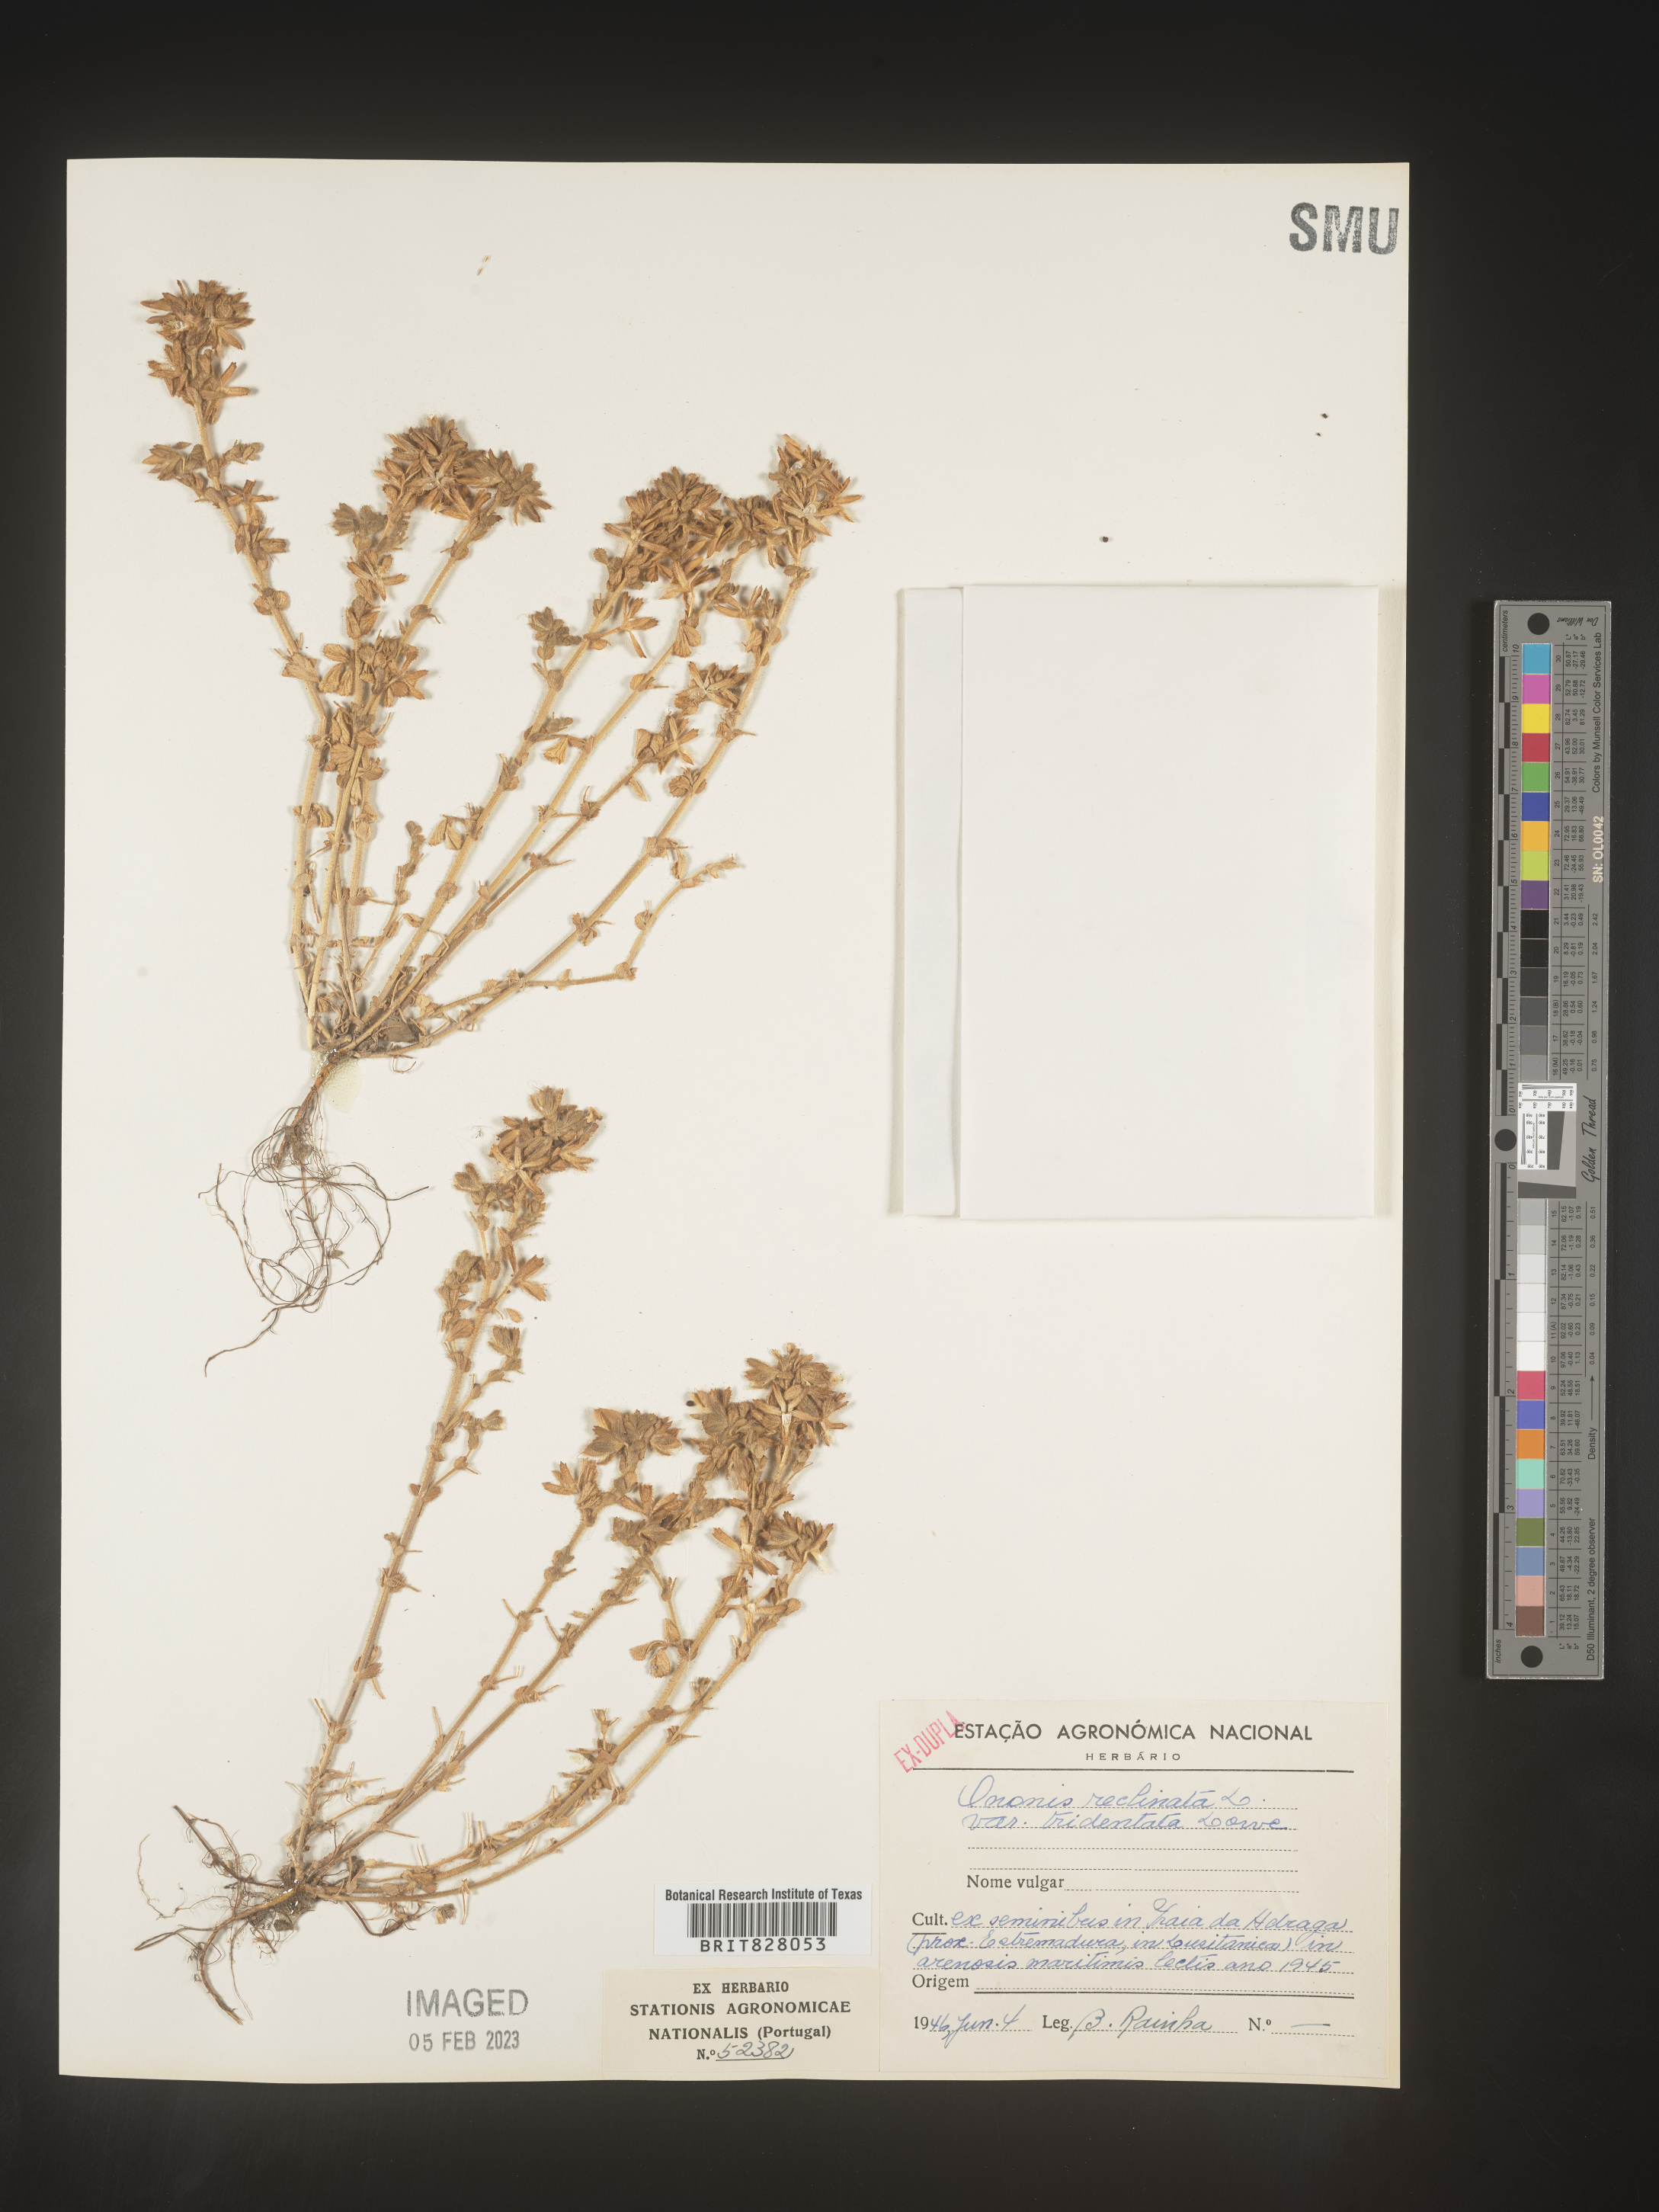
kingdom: Plantae
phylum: Tracheophyta
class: Magnoliopsida
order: Fabales
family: Fabaceae
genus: Ononis
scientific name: Ononis
